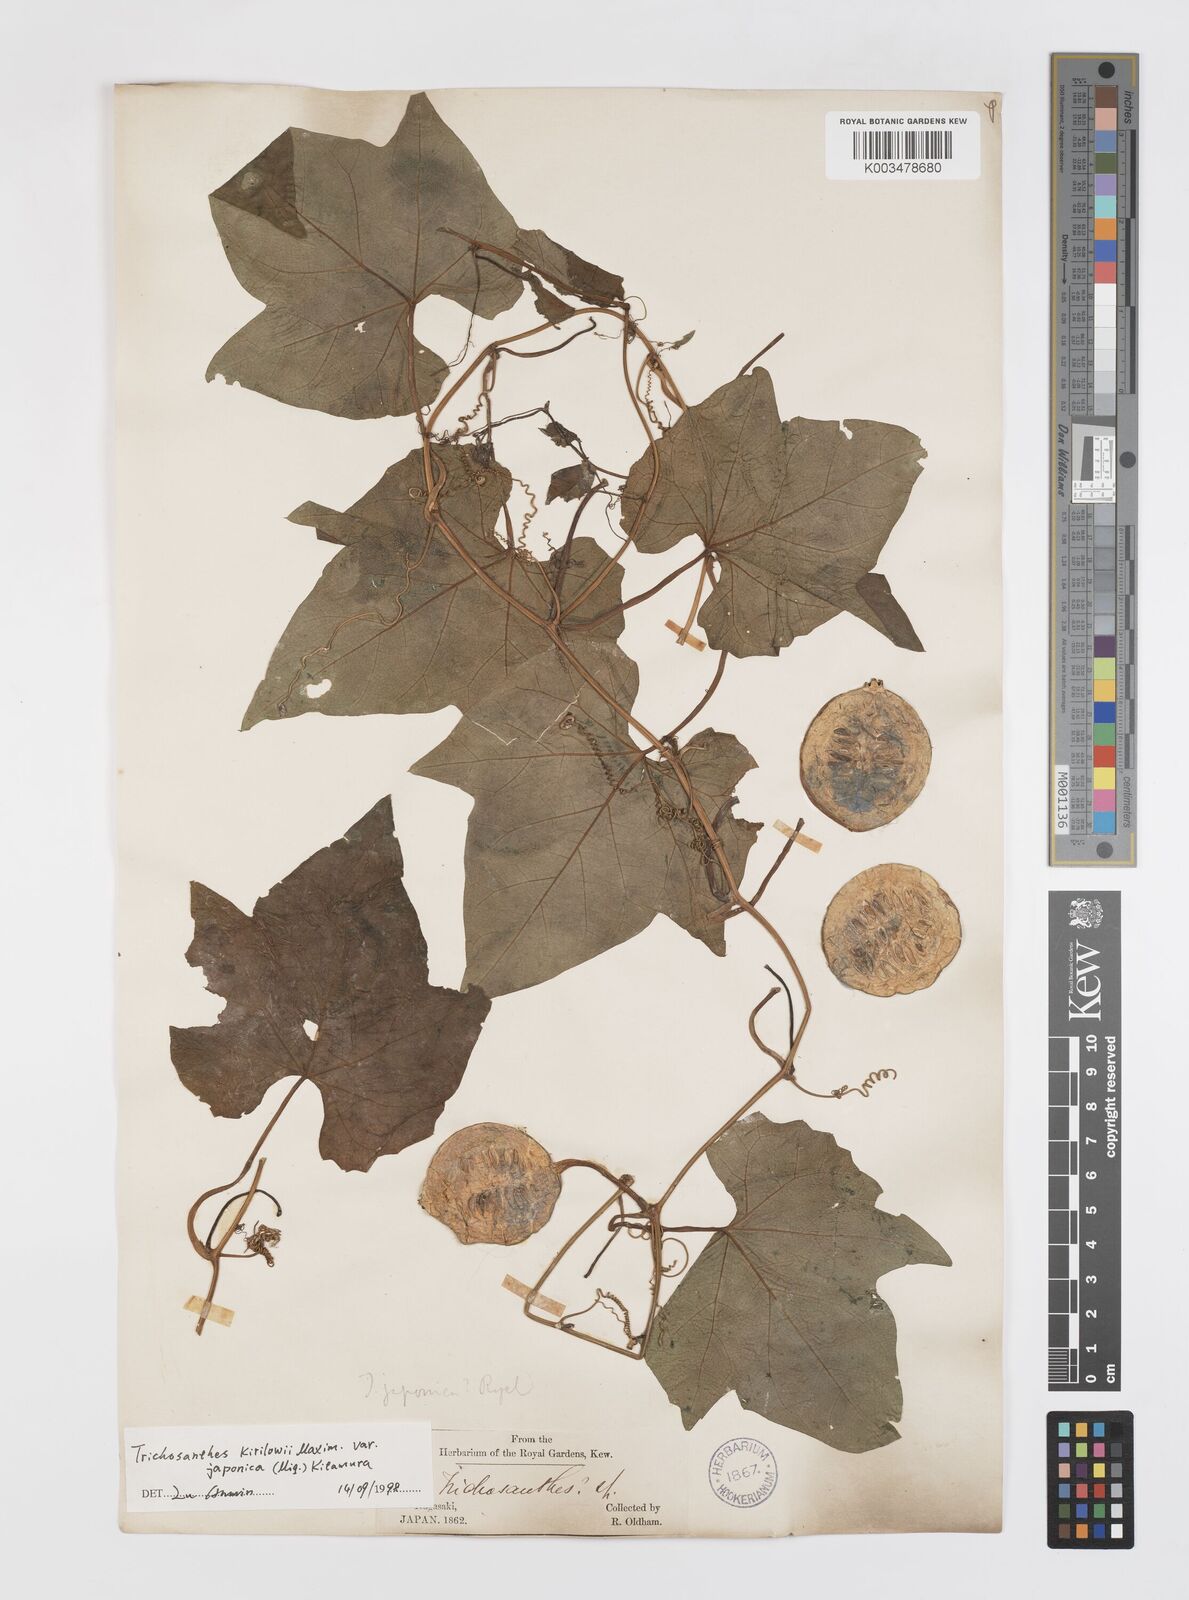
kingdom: Plantae
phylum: Tracheophyta
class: Magnoliopsida
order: Cucurbitales
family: Cucurbitaceae
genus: Trichosanthes
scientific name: Trichosanthes kirilowii
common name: Chinese-cucumber
